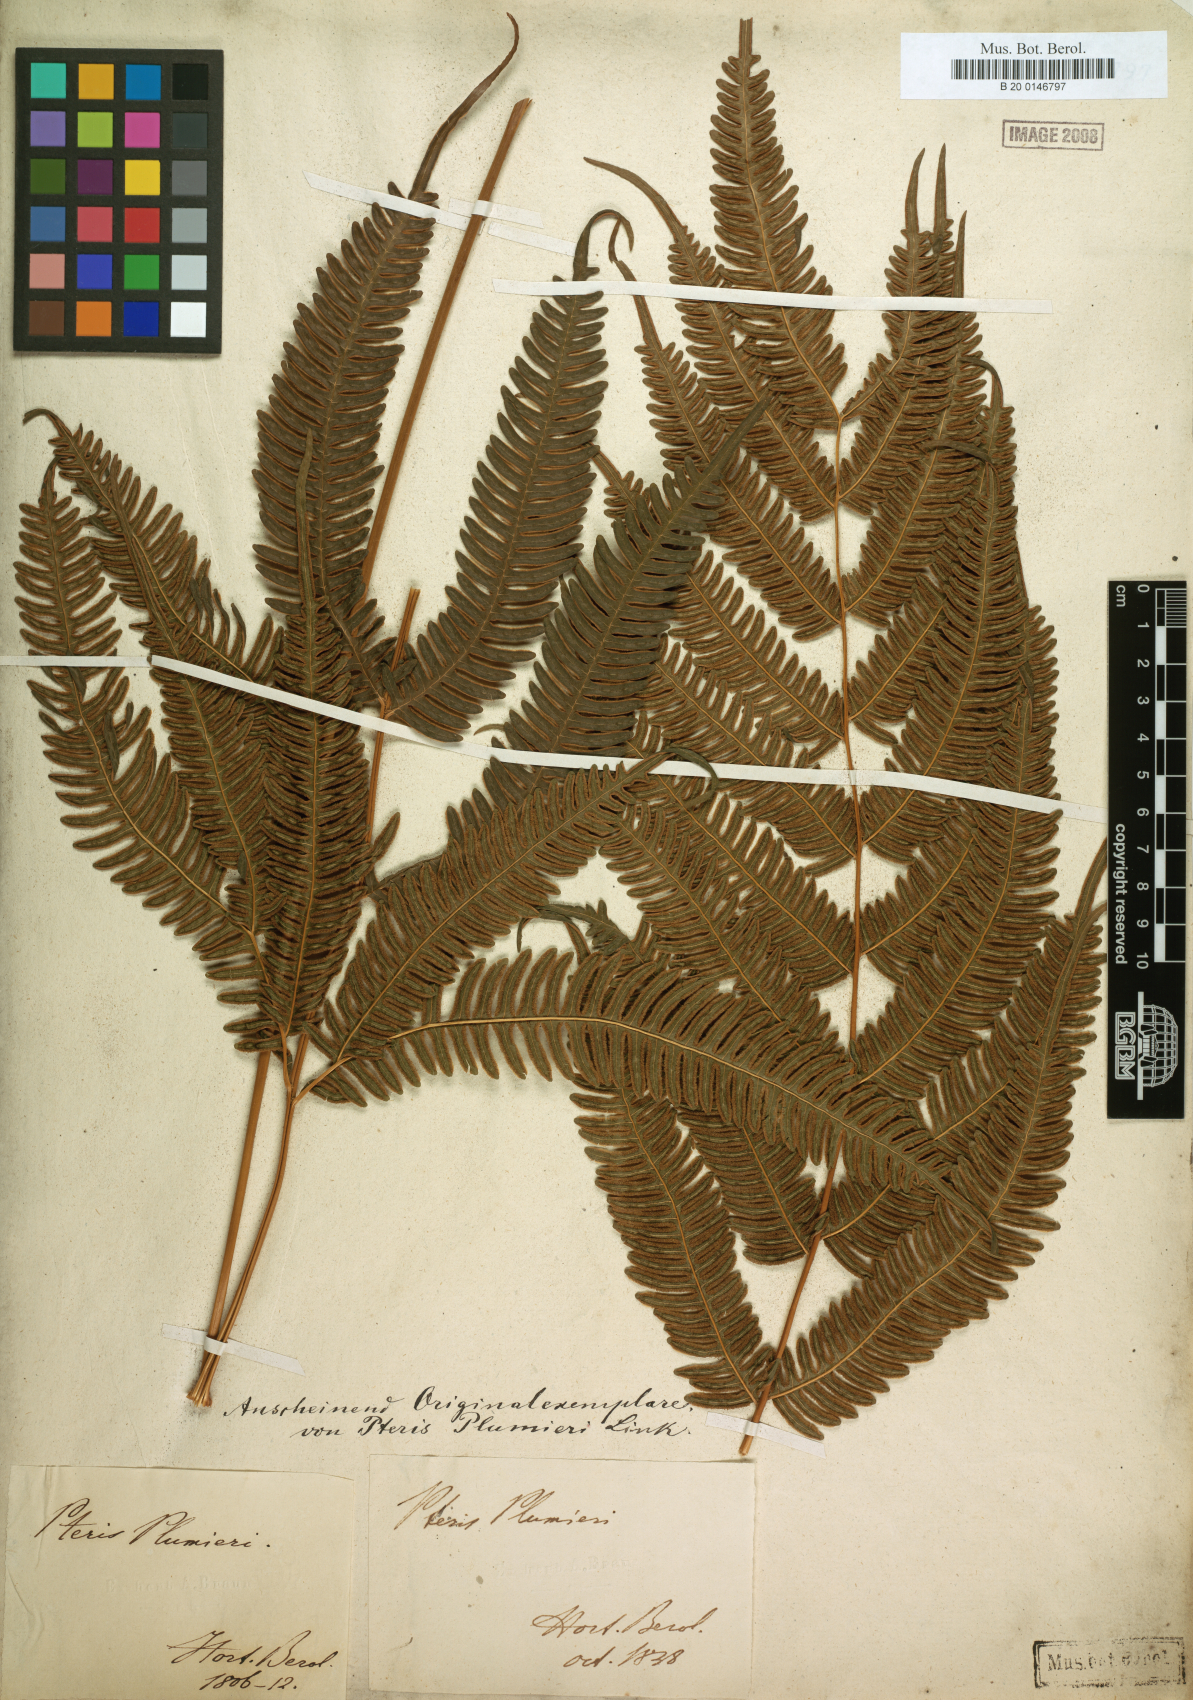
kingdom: Plantae
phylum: Tracheophyta
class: Polypodiopsida
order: Polypodiales
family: Pteridaceae
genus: Pteris
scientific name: Pteris quadriaurita
